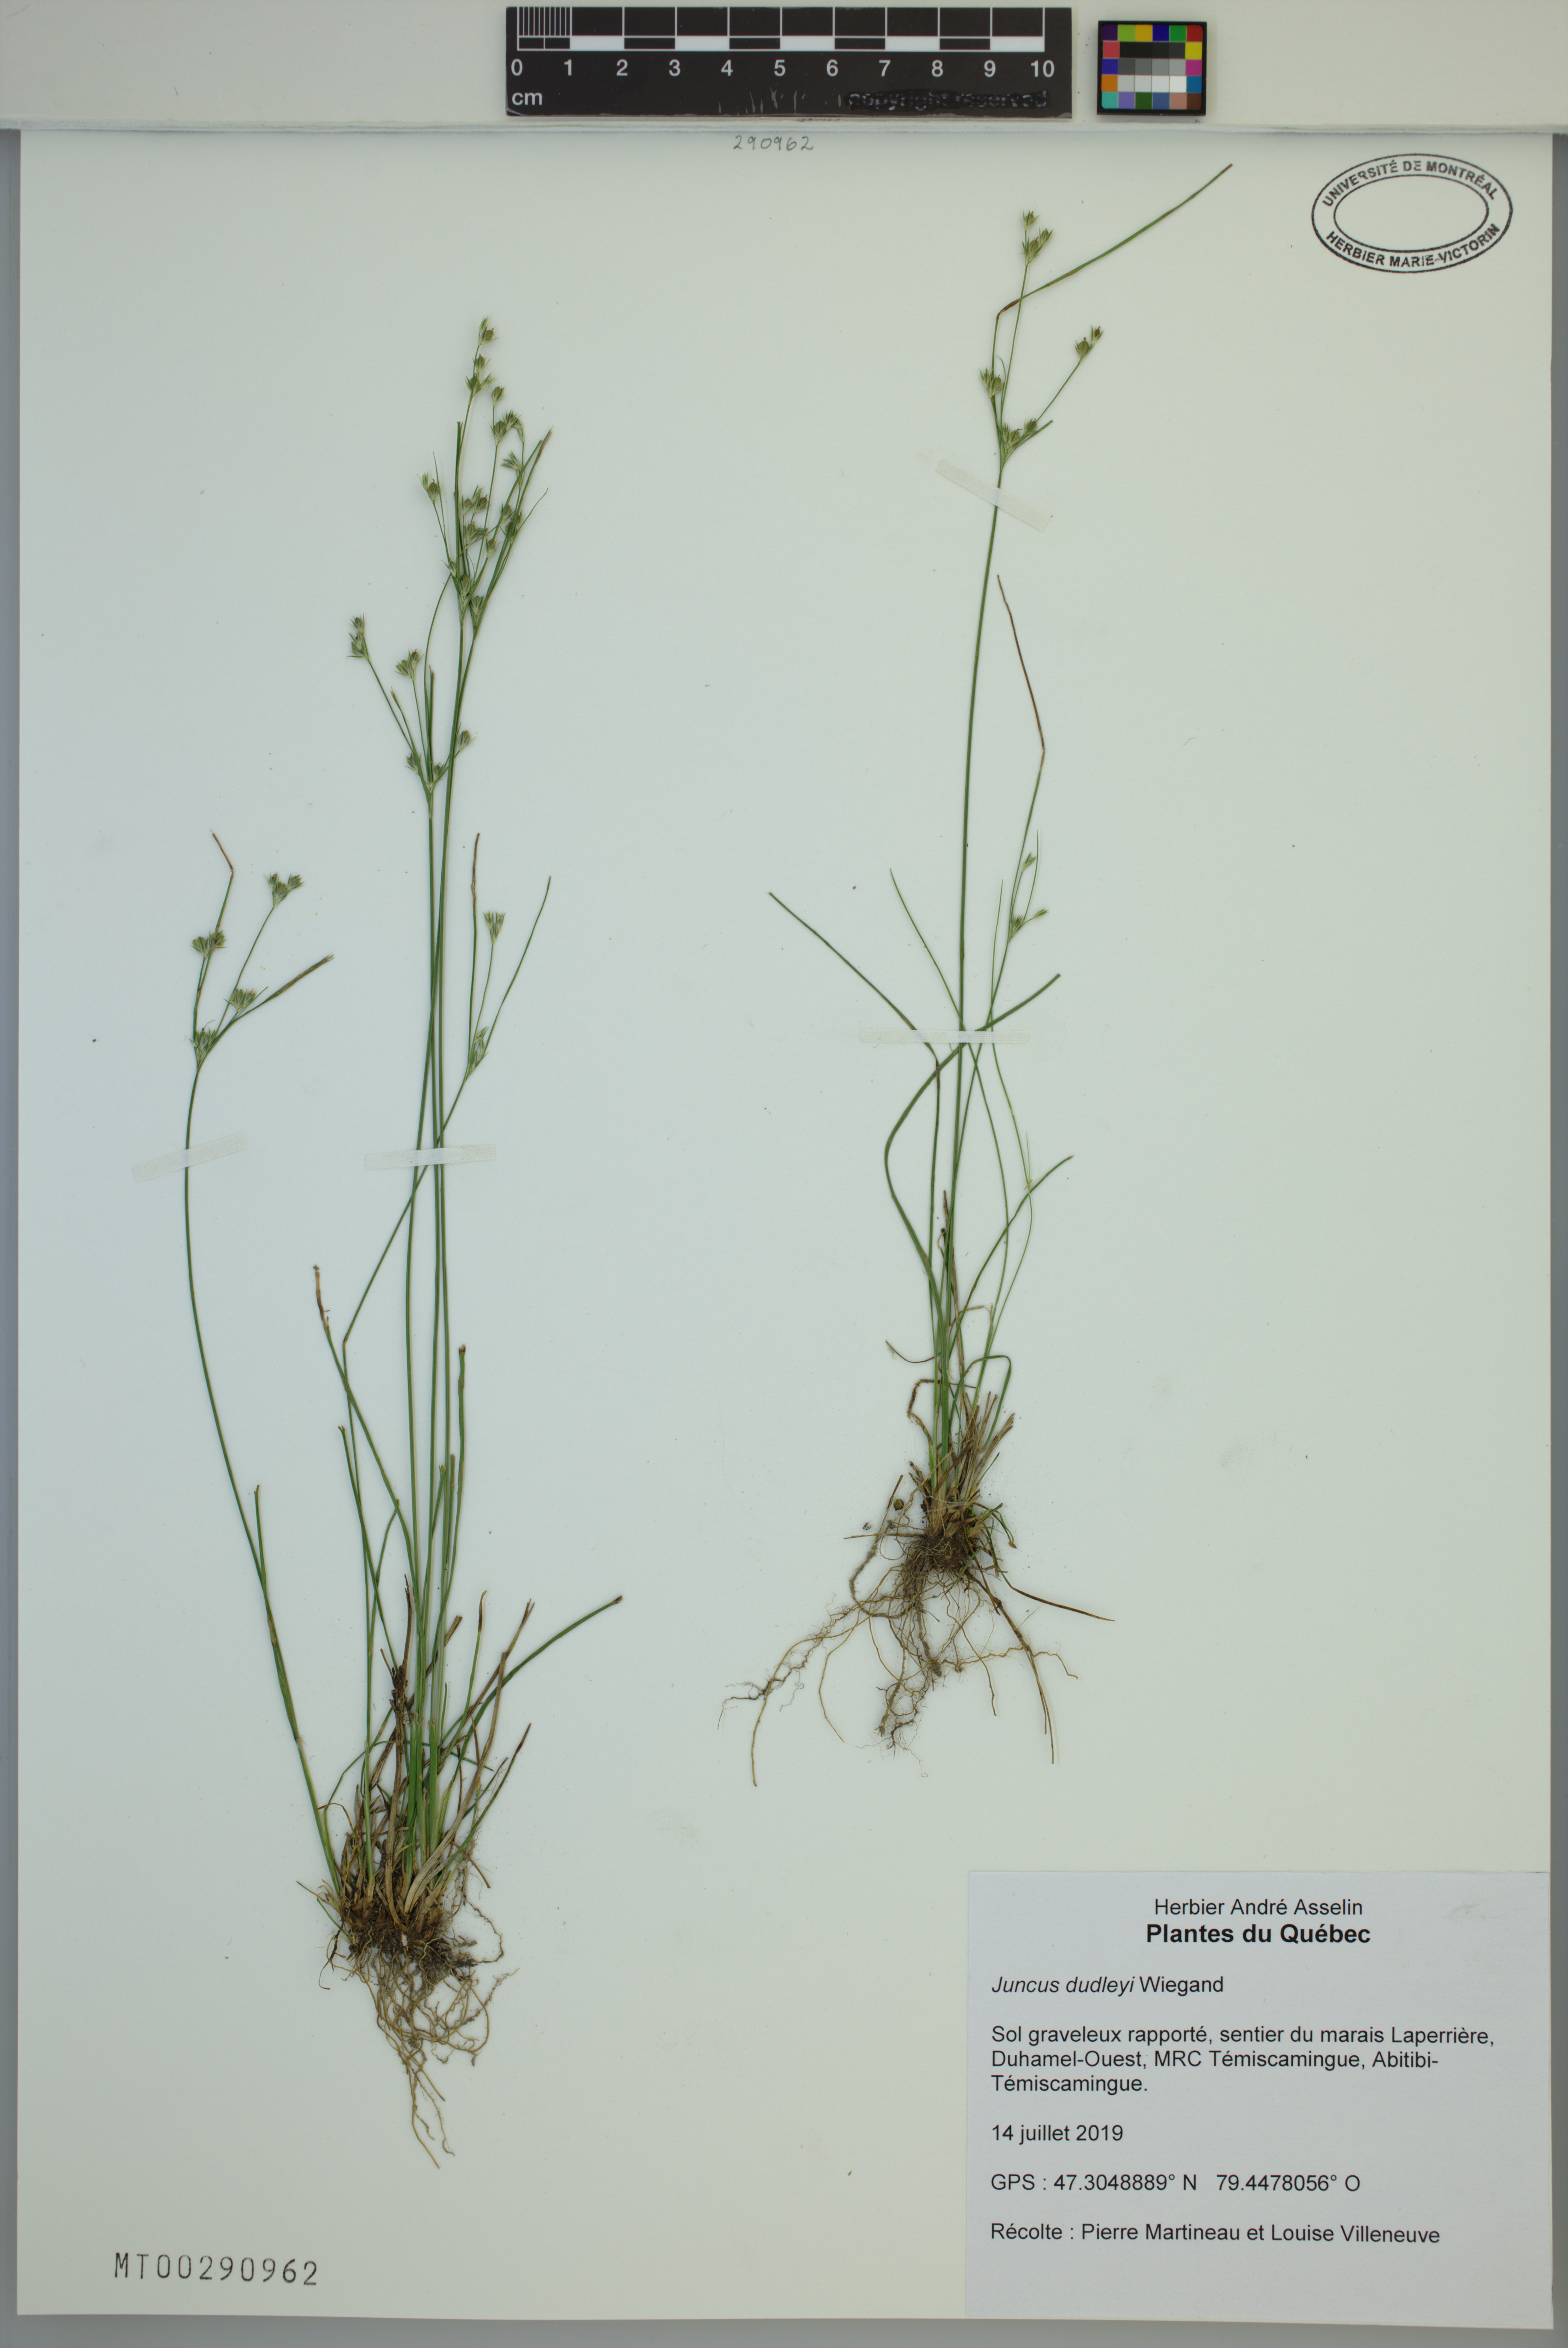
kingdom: Plantae
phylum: Tracheophyta
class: Liliopsida
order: Poales
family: Juncaceae
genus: Juncus
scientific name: Juncus dudleyi
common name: Dudley's rush
